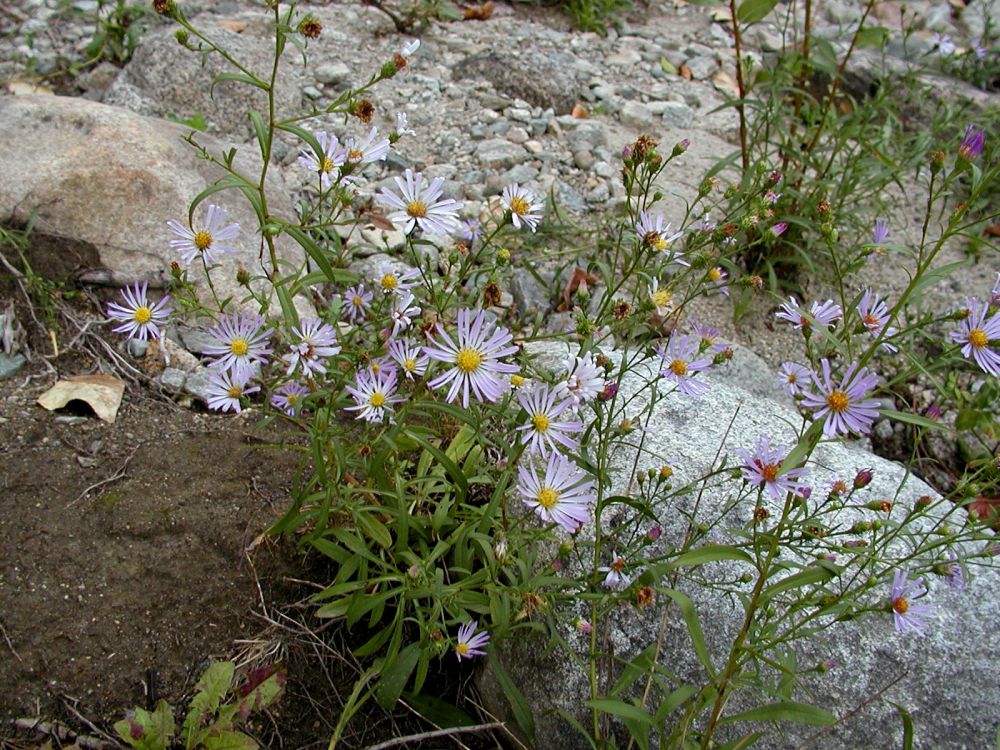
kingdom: Plantae
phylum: Tracheophyta
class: Magnoliopsida
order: Asterales
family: Asteraceae
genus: Symphyotrichum
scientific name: Symphyotrichum subspicatum
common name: Douglas' aster
